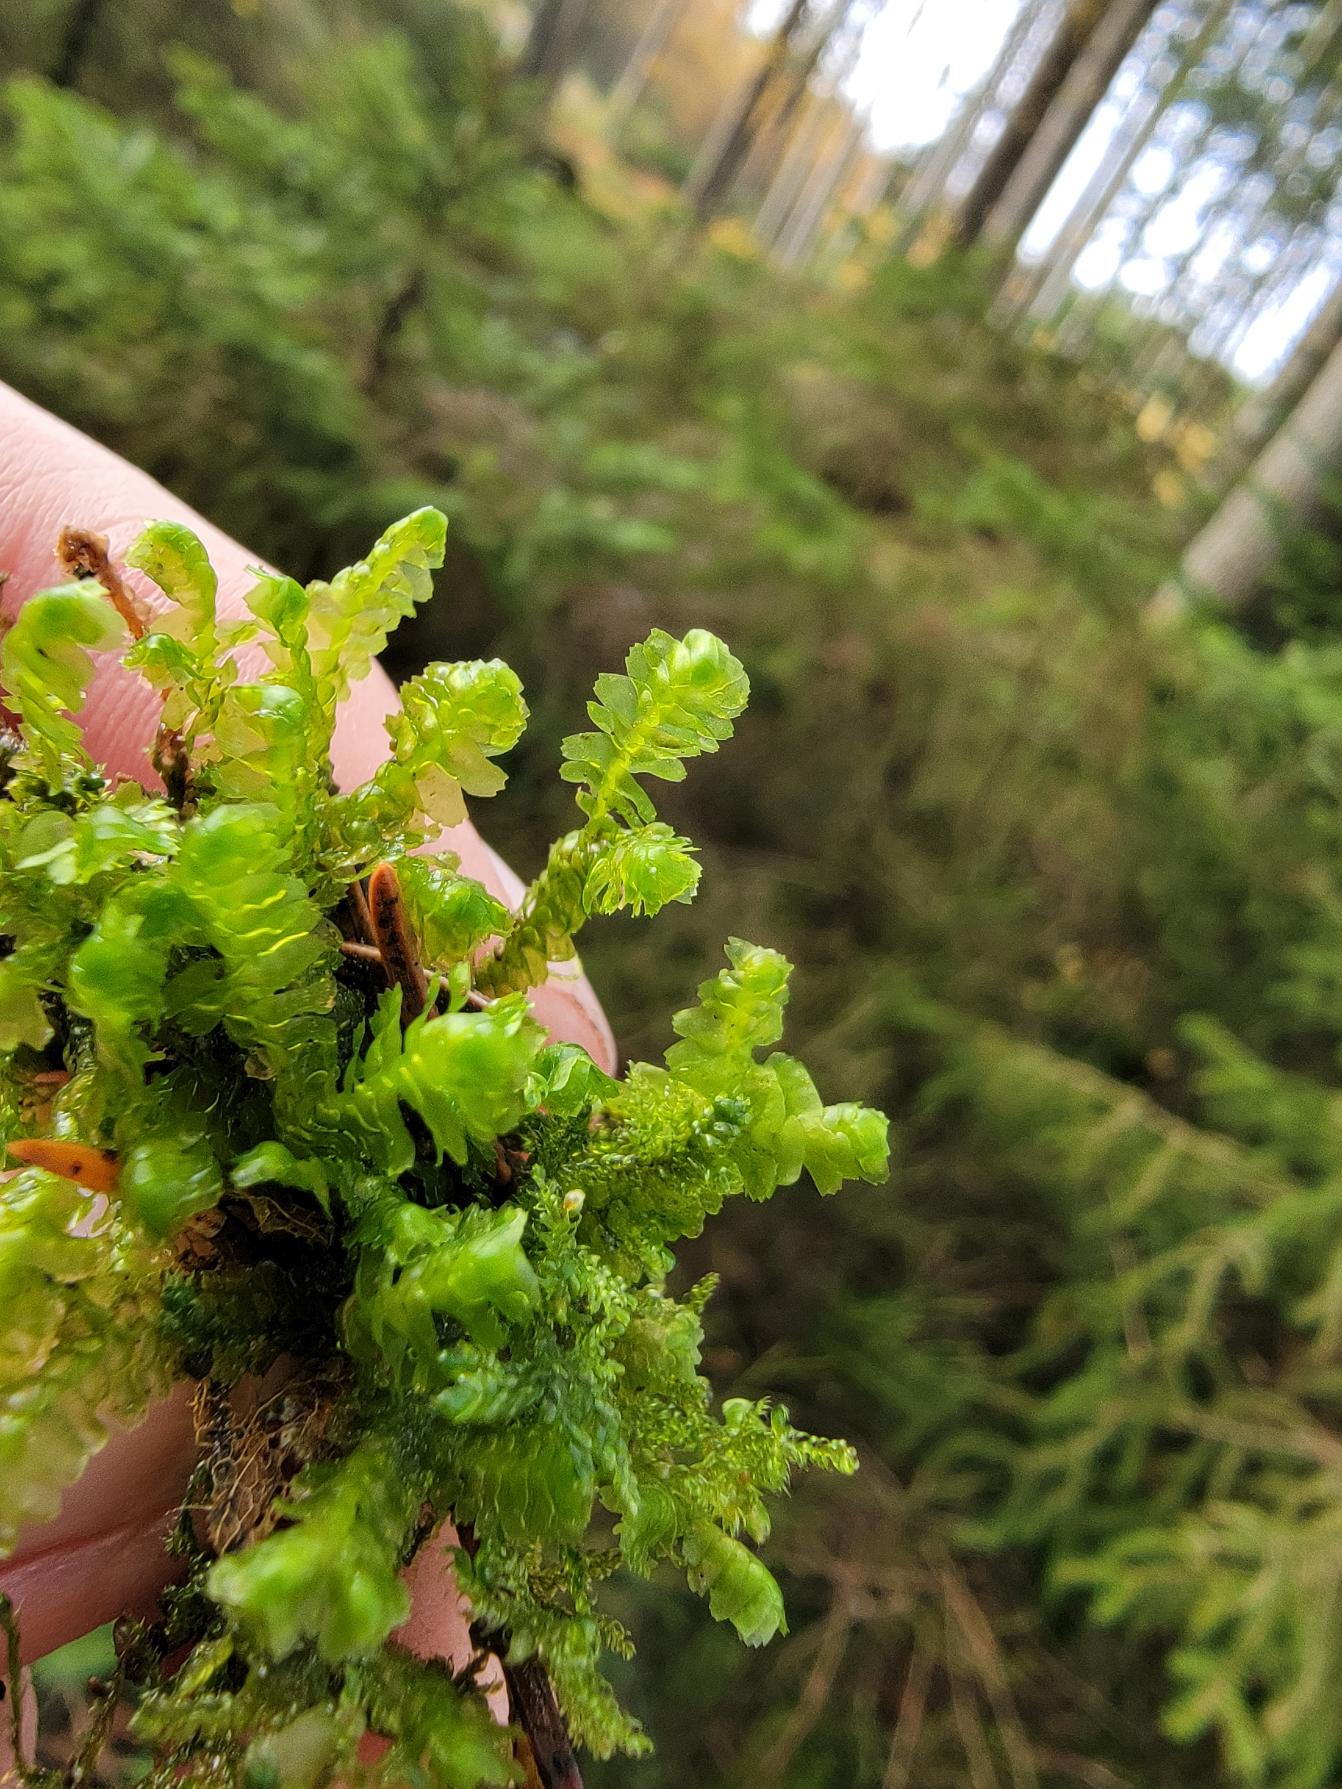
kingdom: Plantae
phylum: Marchantiophyta
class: Jungermanniopsida
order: Jungermanniales
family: Lepidoziaceae
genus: Bazzania
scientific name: Bazzania trilobata
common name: Stor styltemos
